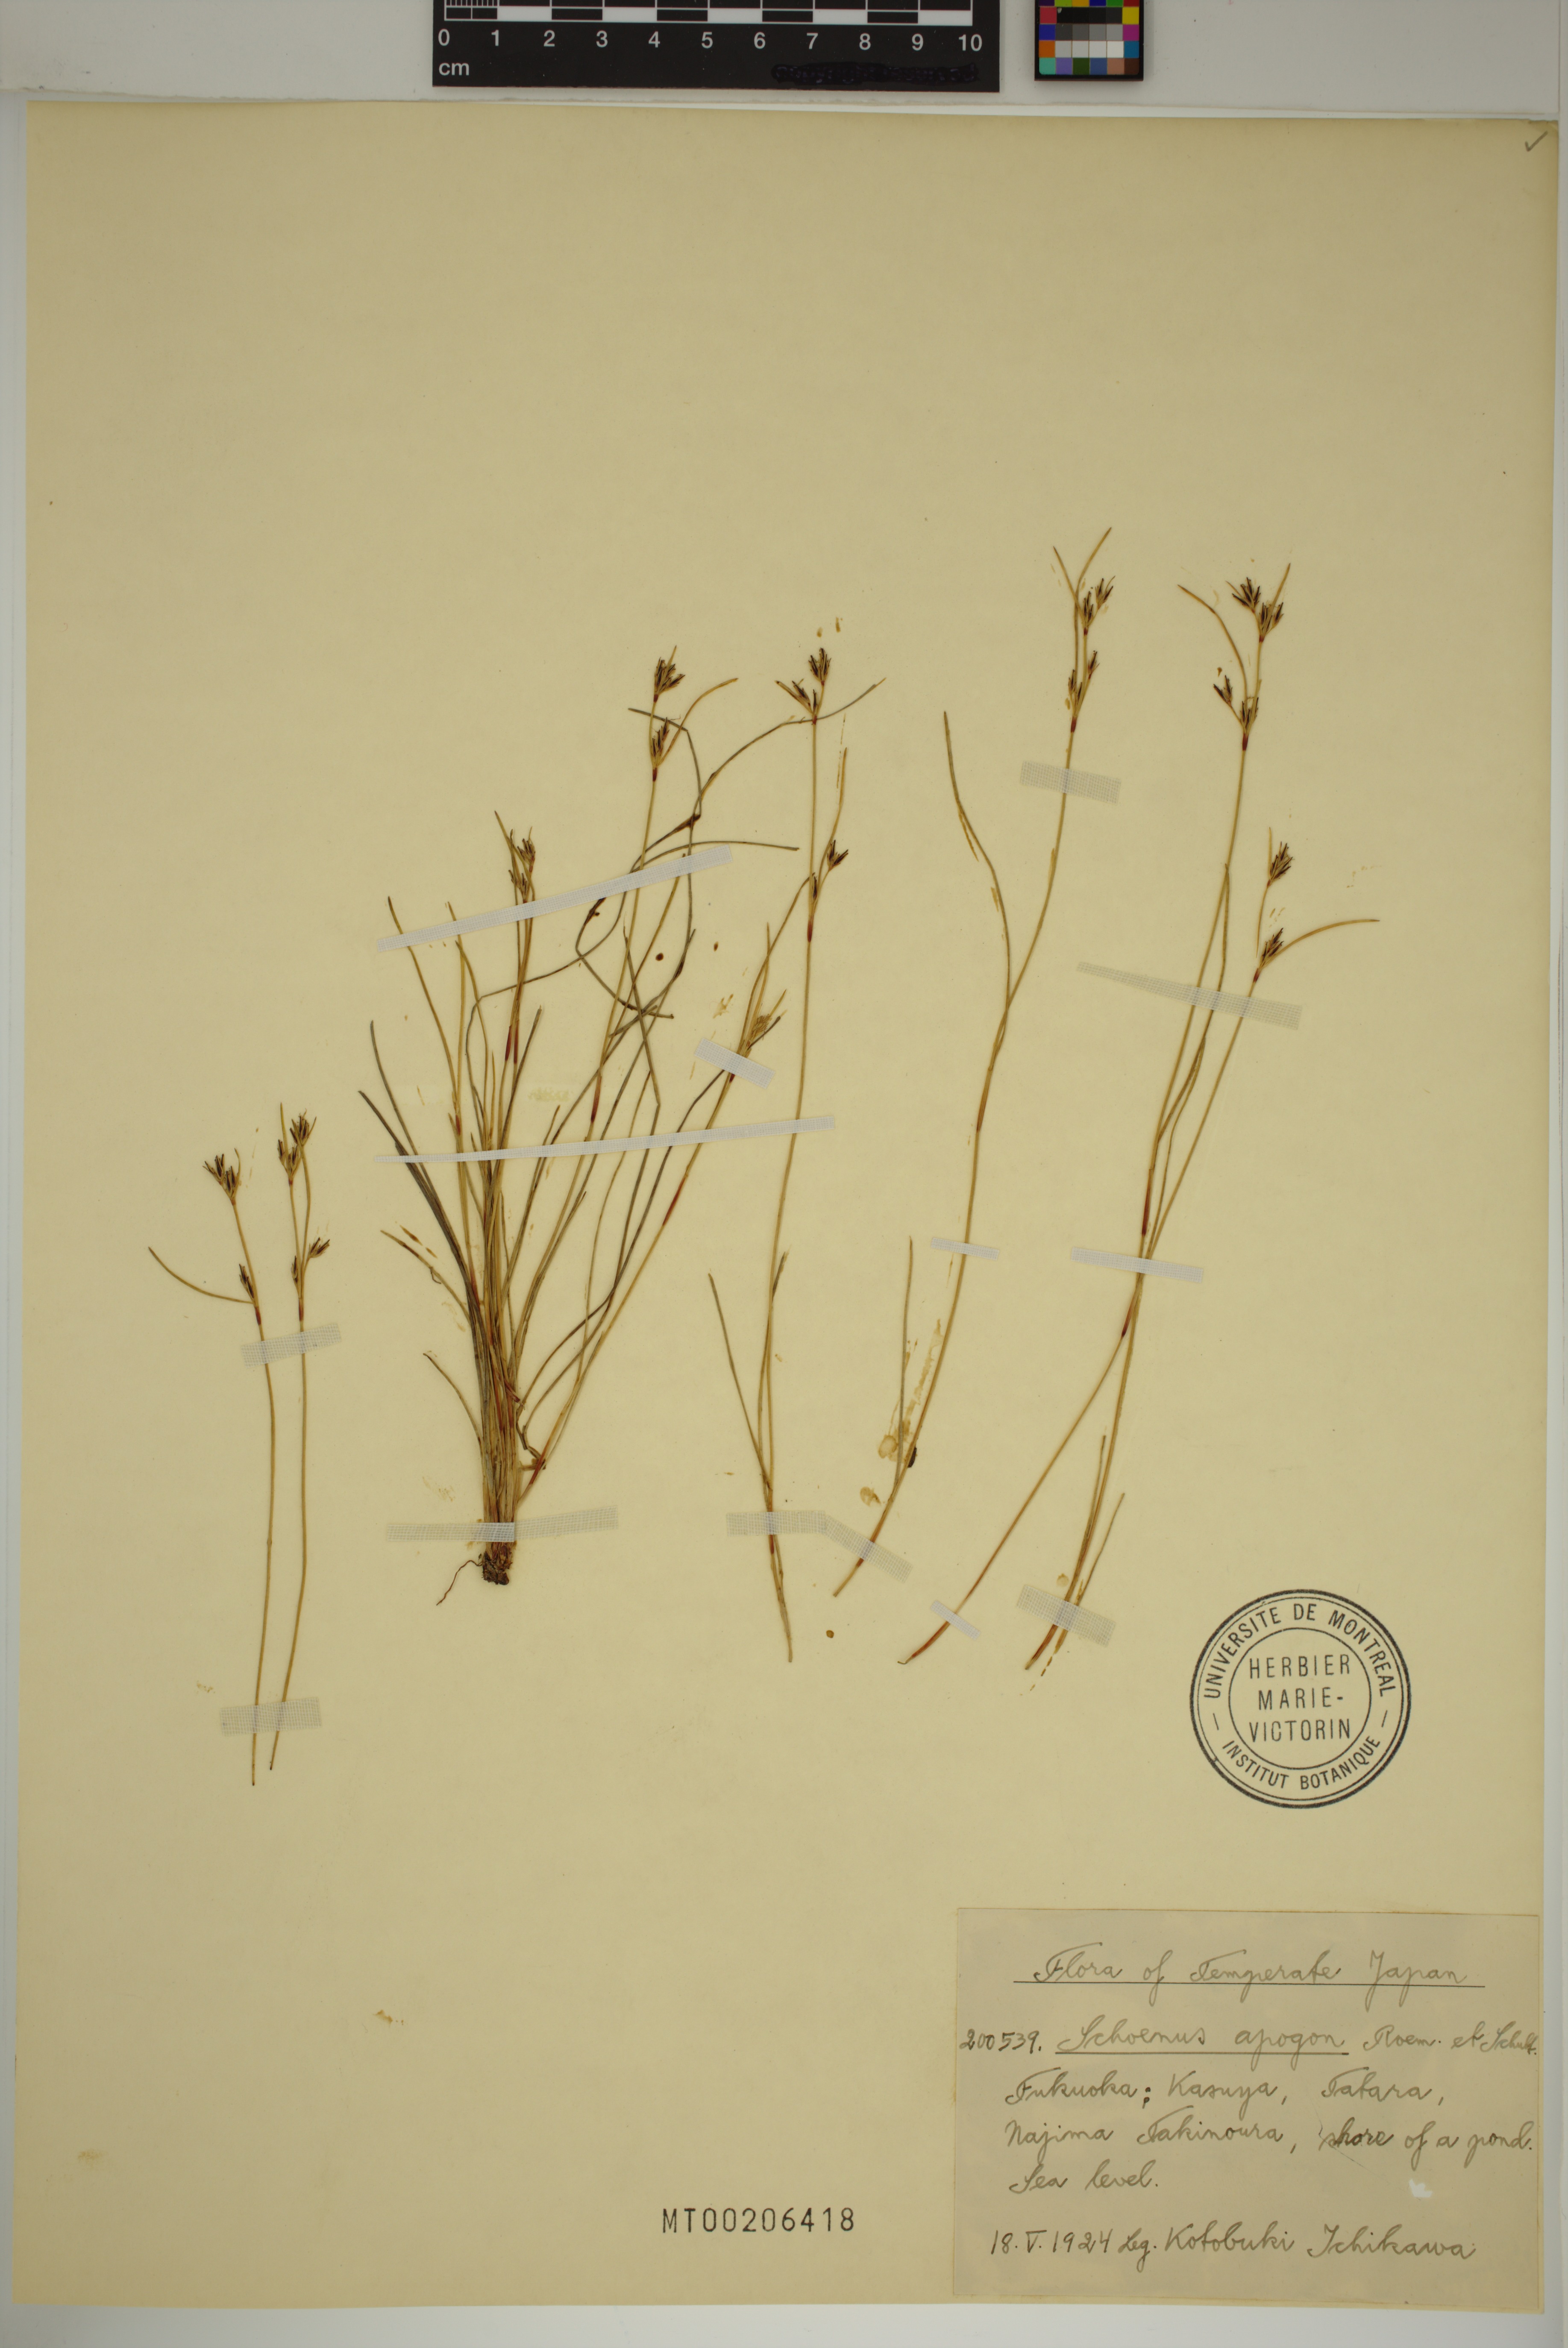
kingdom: Plantae
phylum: Tracheophyta
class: Liliopsida
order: Poales
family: Cyperaceae
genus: Schoenus
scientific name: Schoenus apogon
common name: Smooth bogrush
